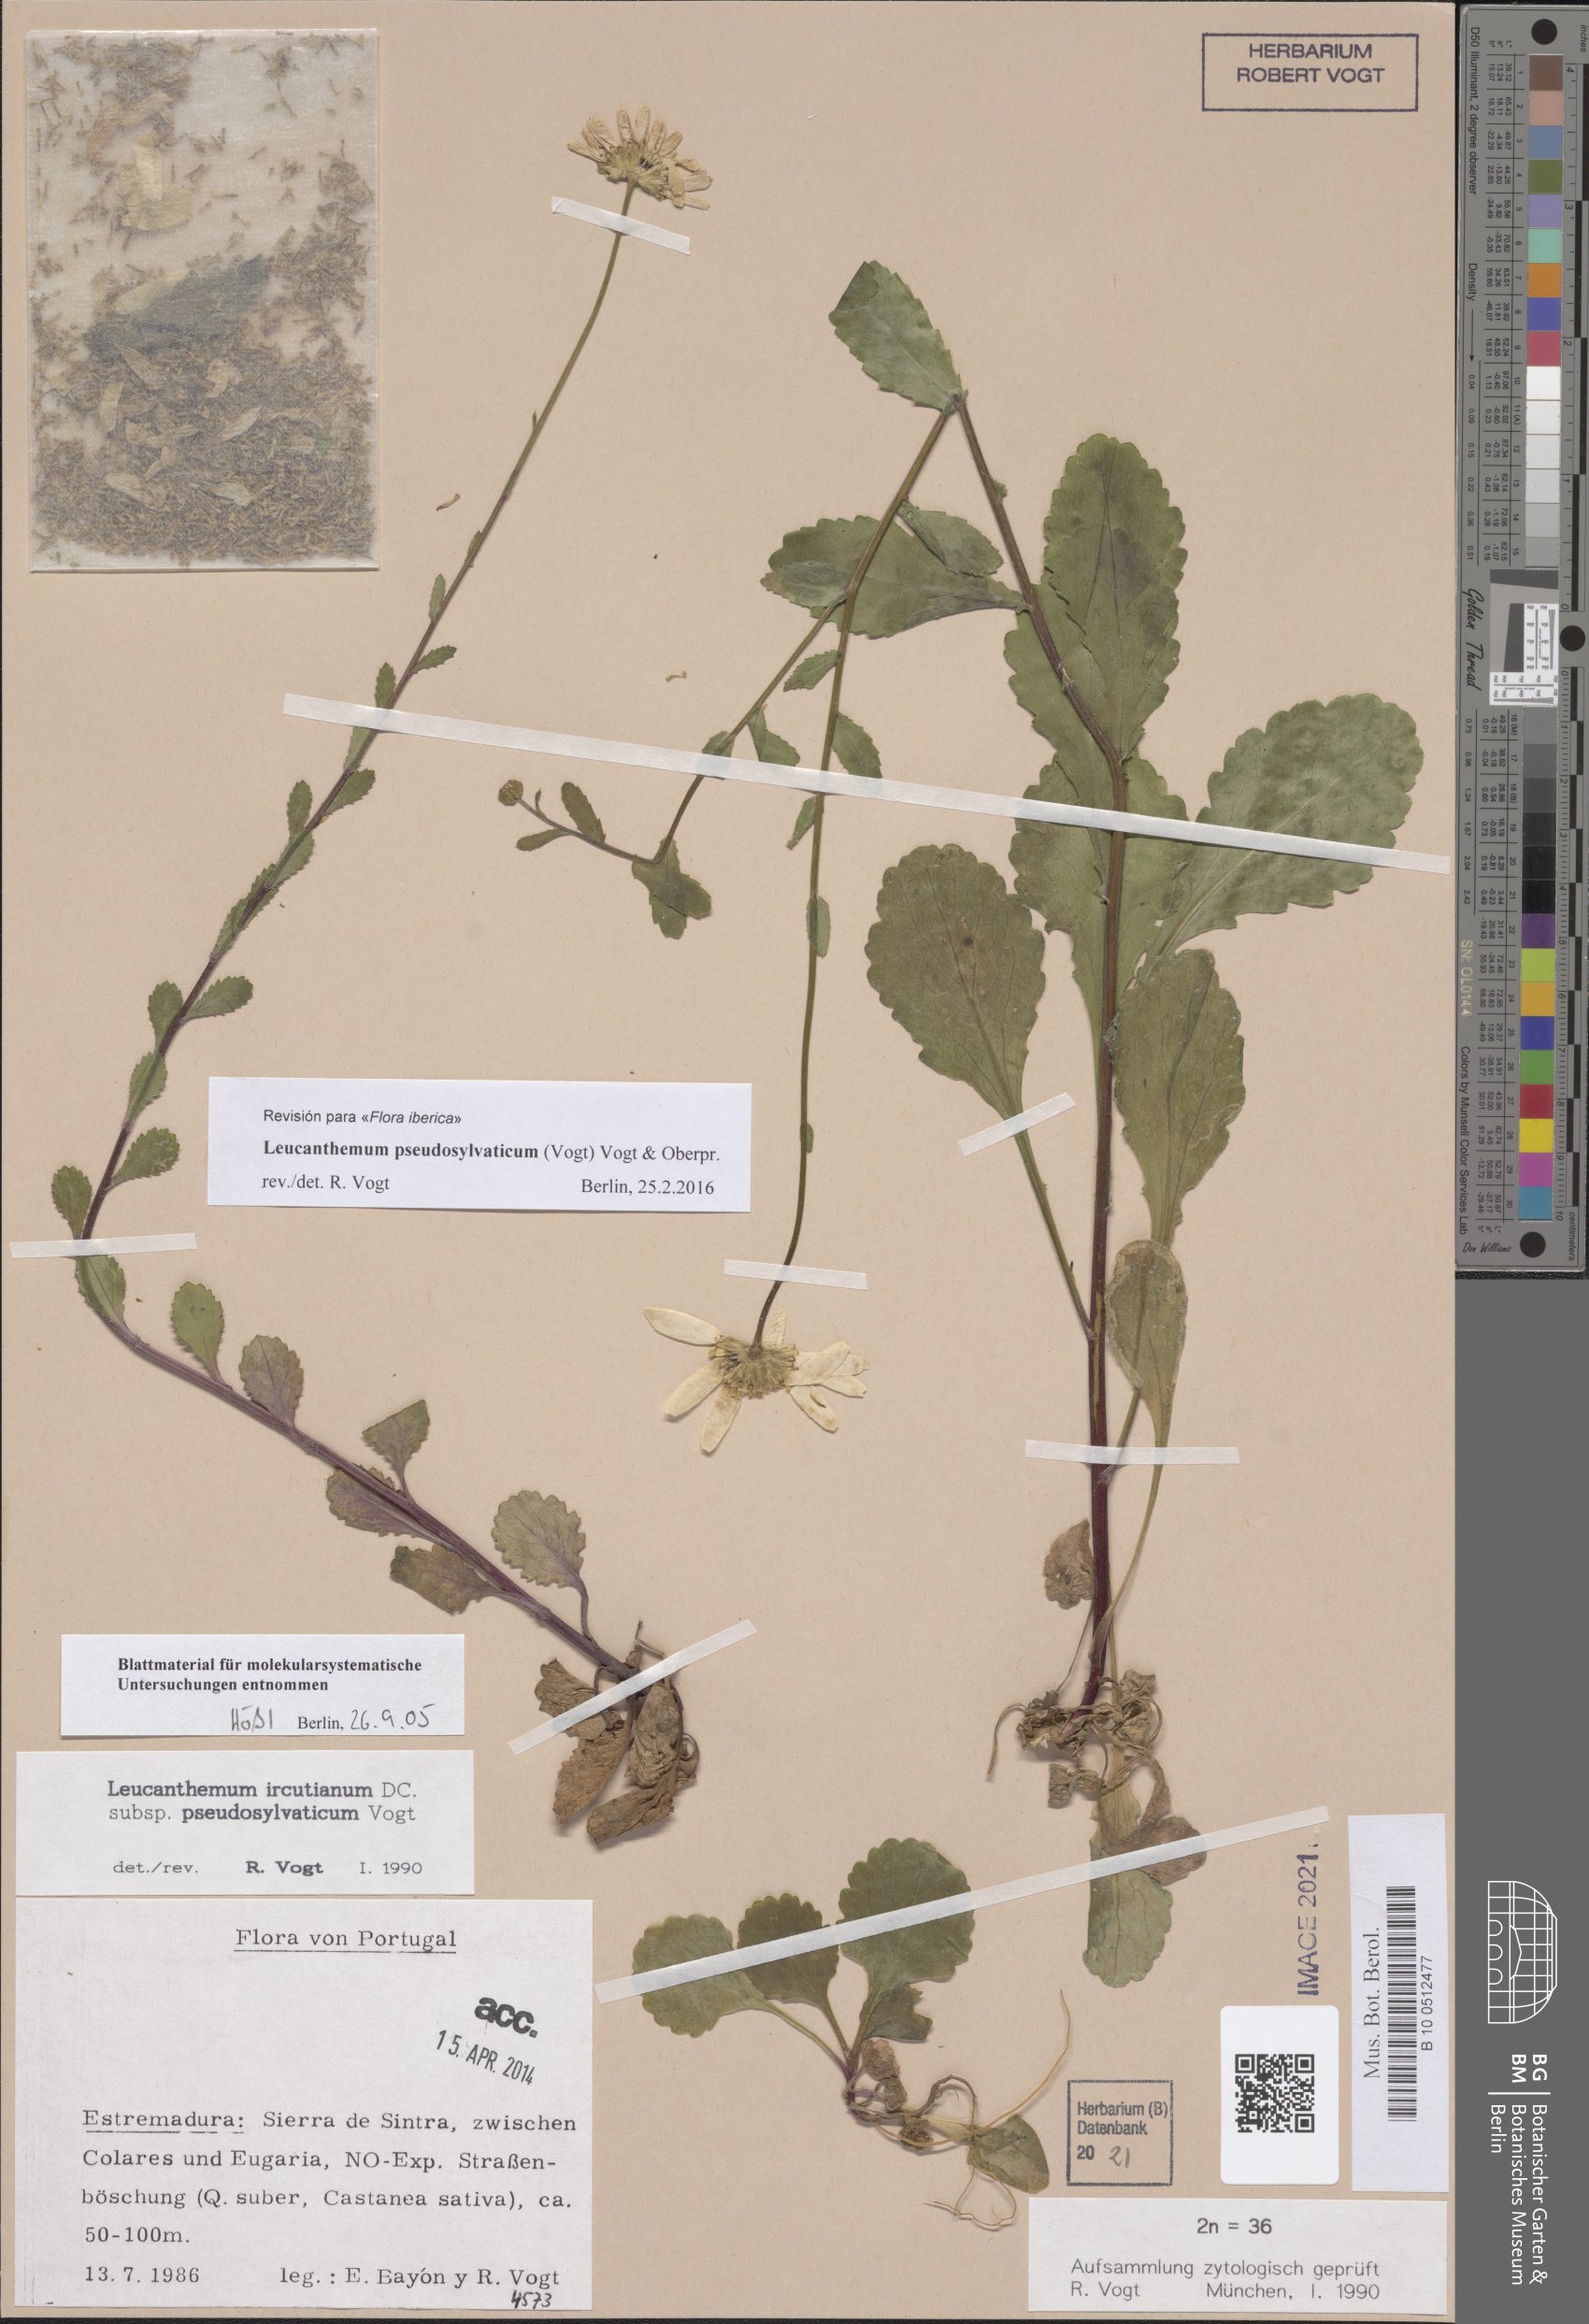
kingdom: Plantae
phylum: Tracheophyta
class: Magnoliopsida
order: Asterales
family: Asteraceae
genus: Leucanthemum
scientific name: Leucanthemum pseudosylvaticum
